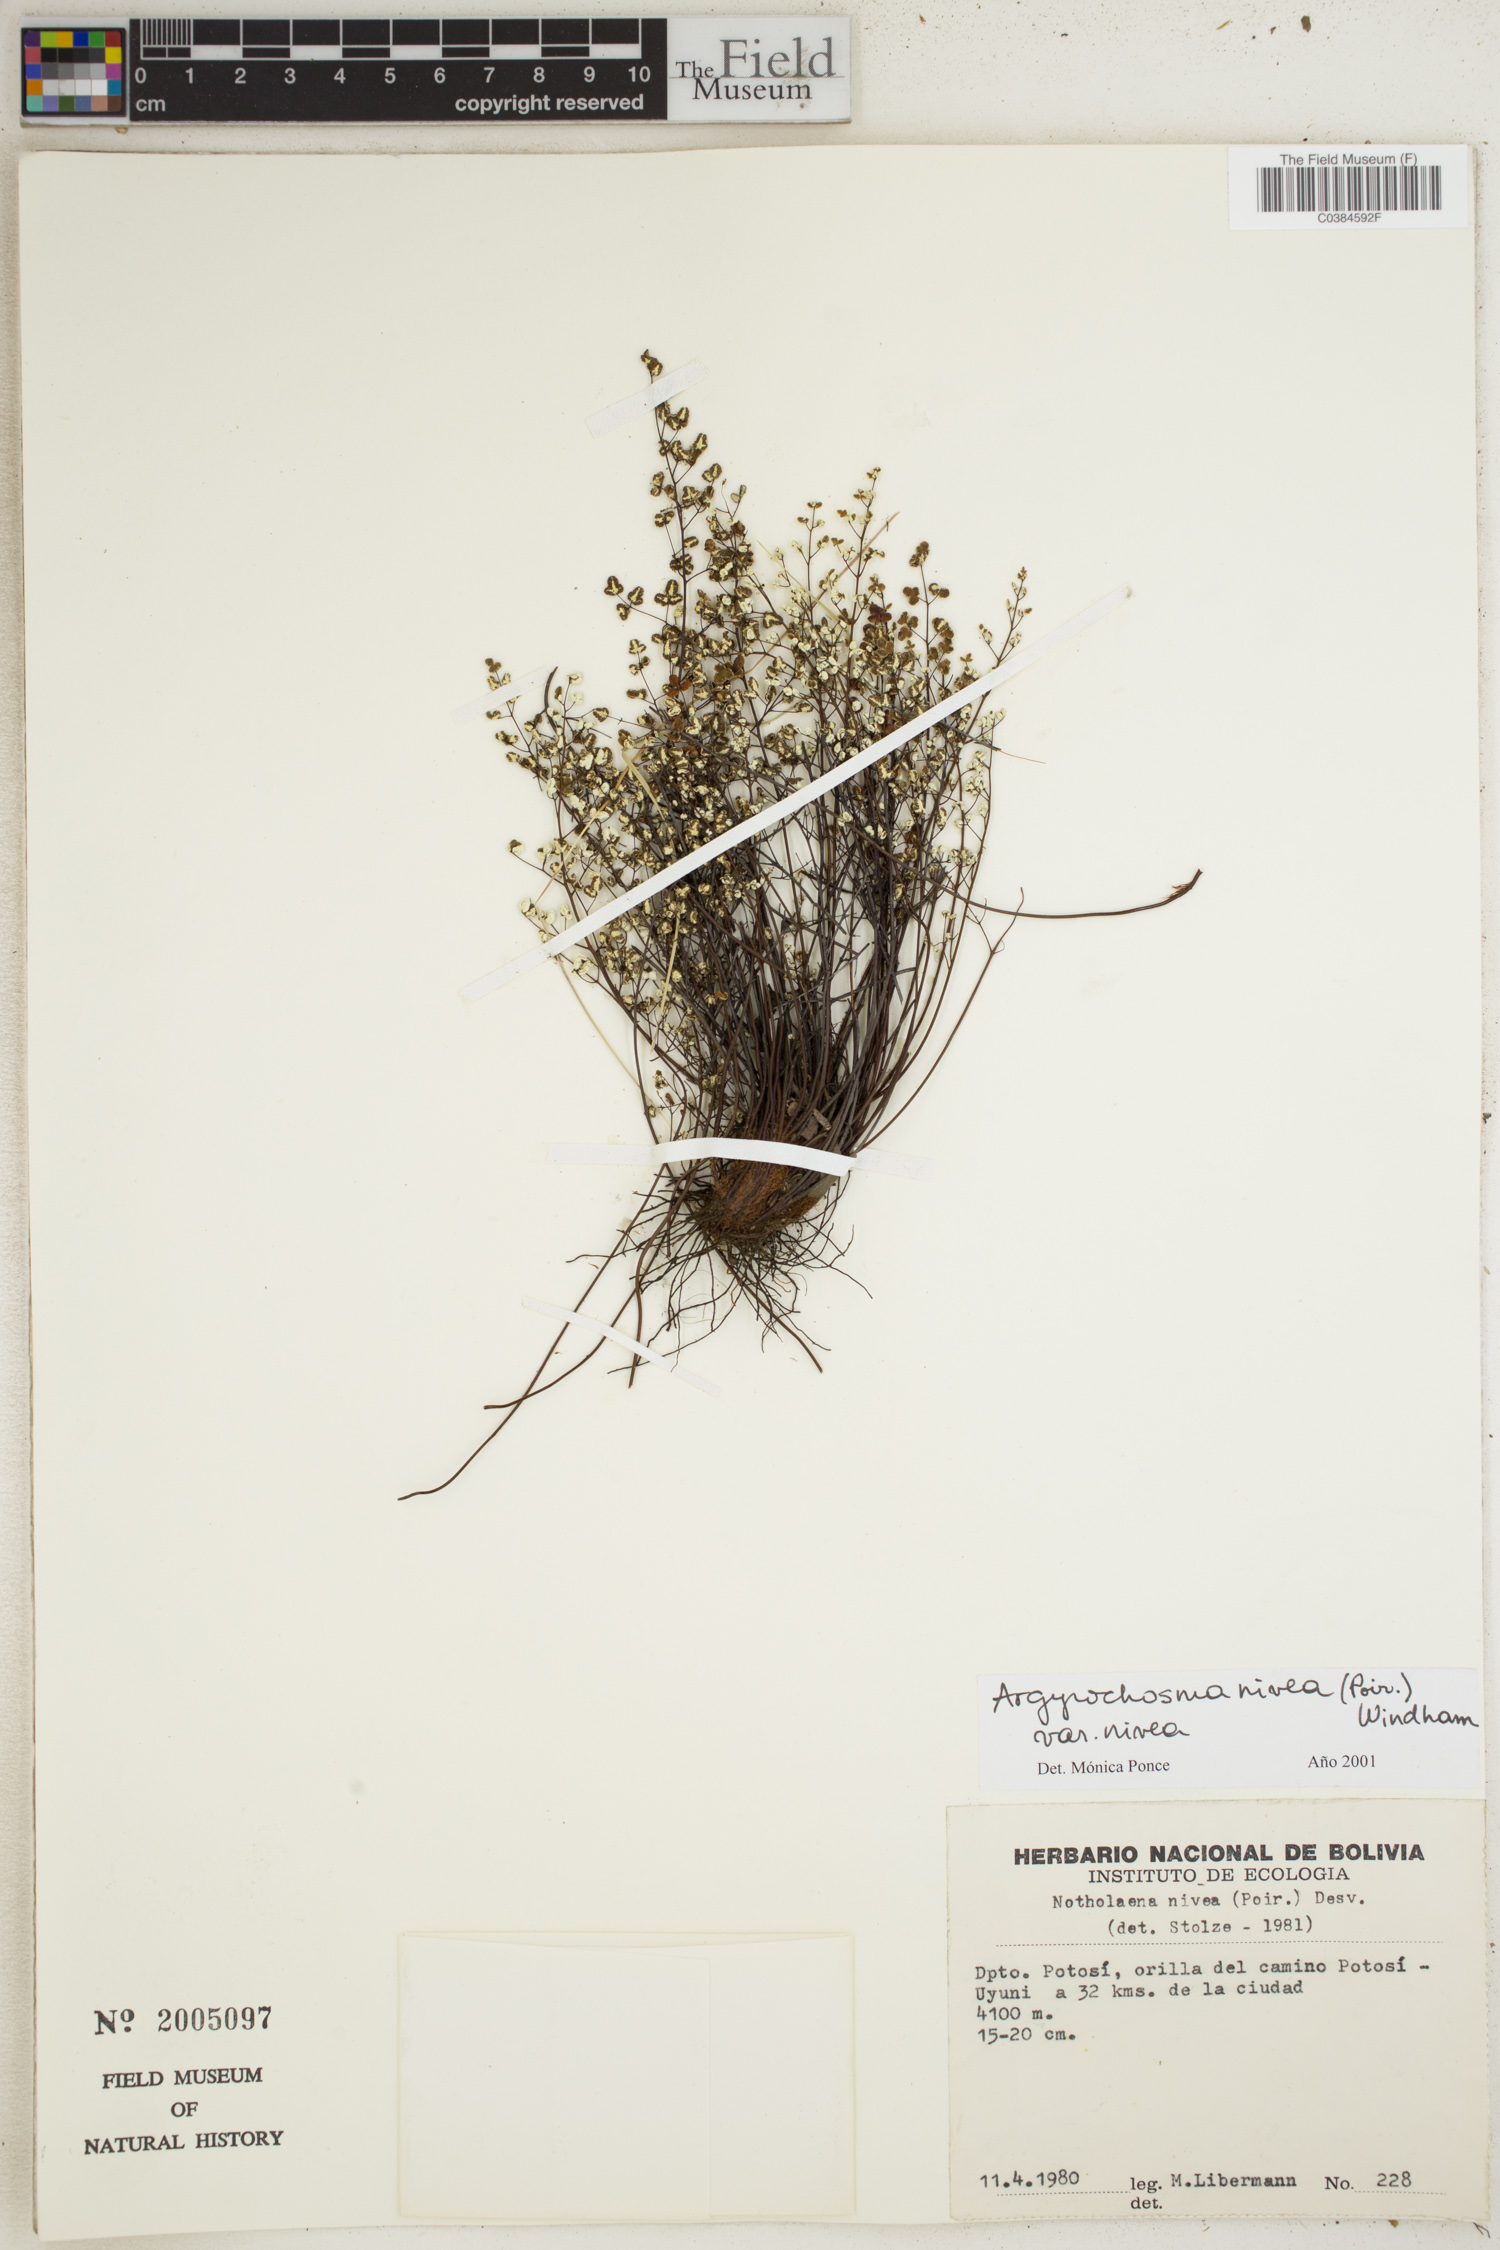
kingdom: Plantae
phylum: Tracheophyta
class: Polypodiopsida
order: Polypodiales
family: Pteridaceae
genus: Argyrochosma
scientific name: Argyrochosma nivea
